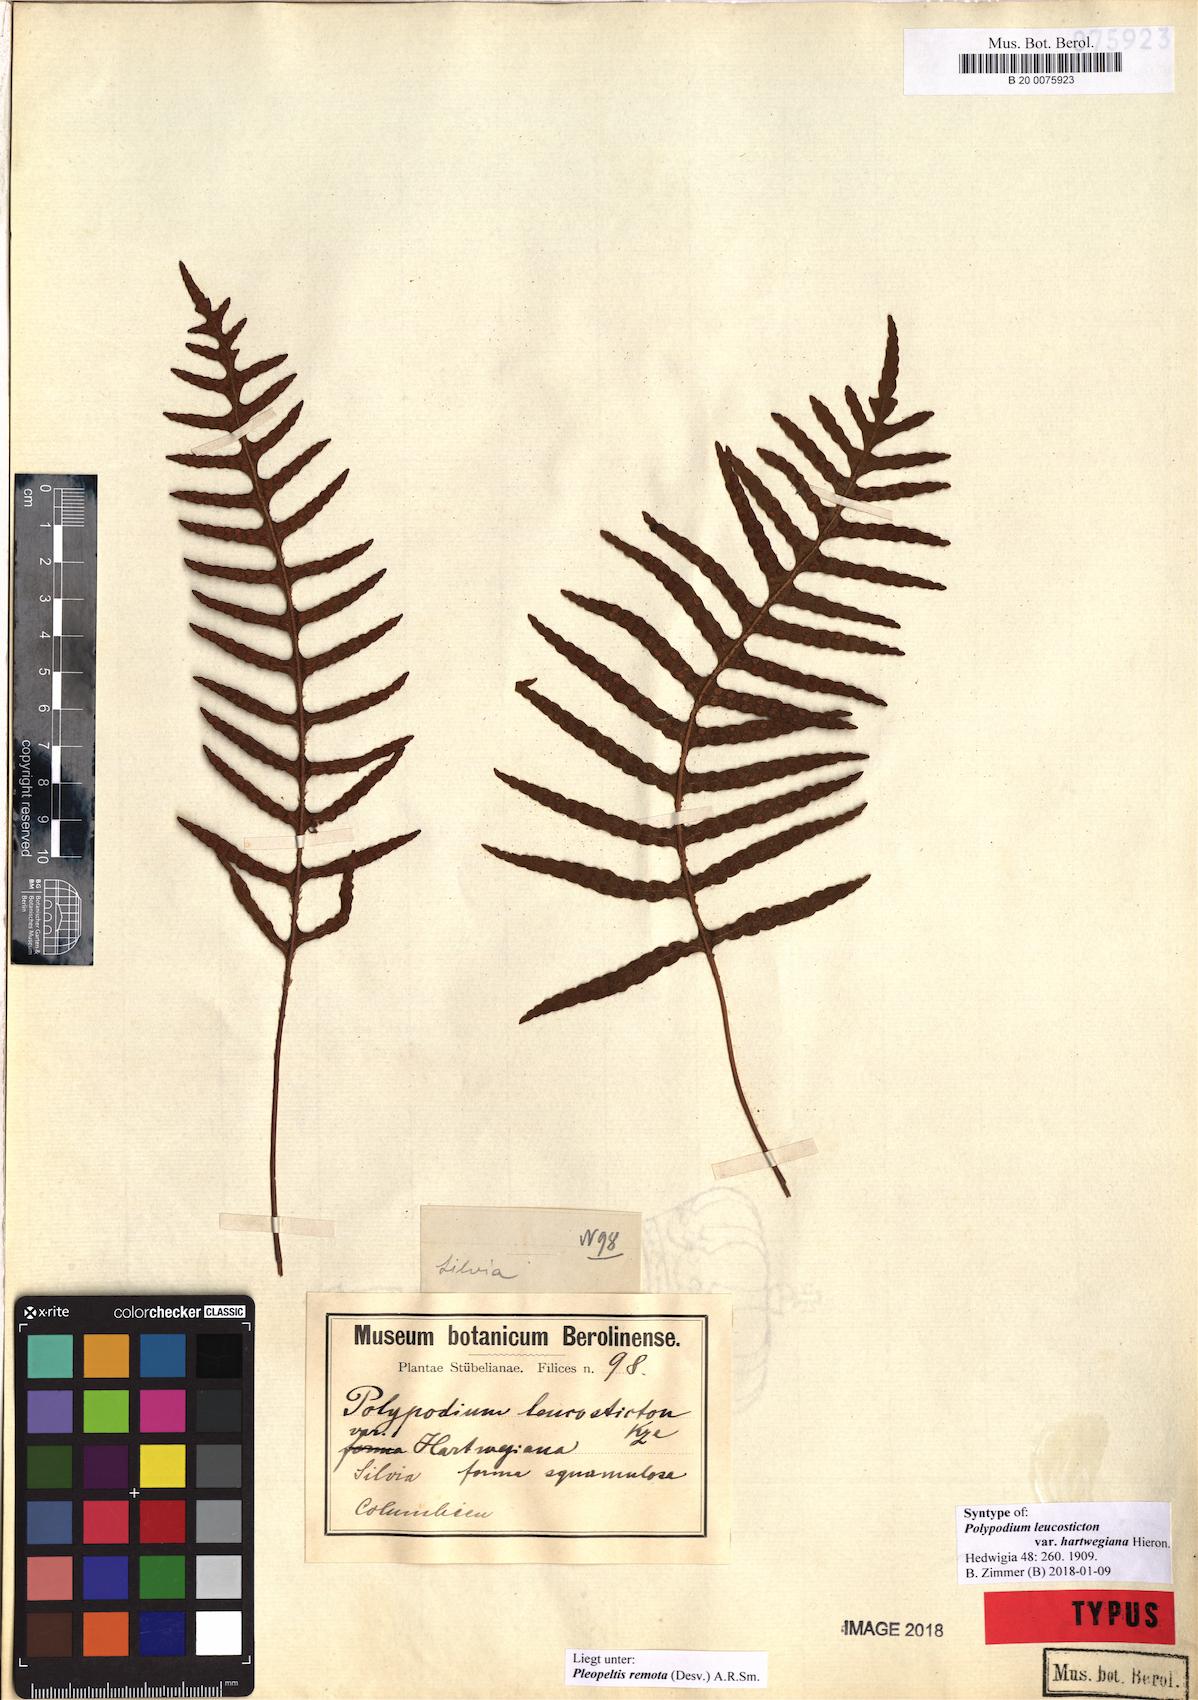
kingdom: Plantae
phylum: Tracheophyta
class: Polypodiopsida
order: Polypodiales
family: Polypodiaceae
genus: Pleopeltis
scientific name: Pleopeltis remota
